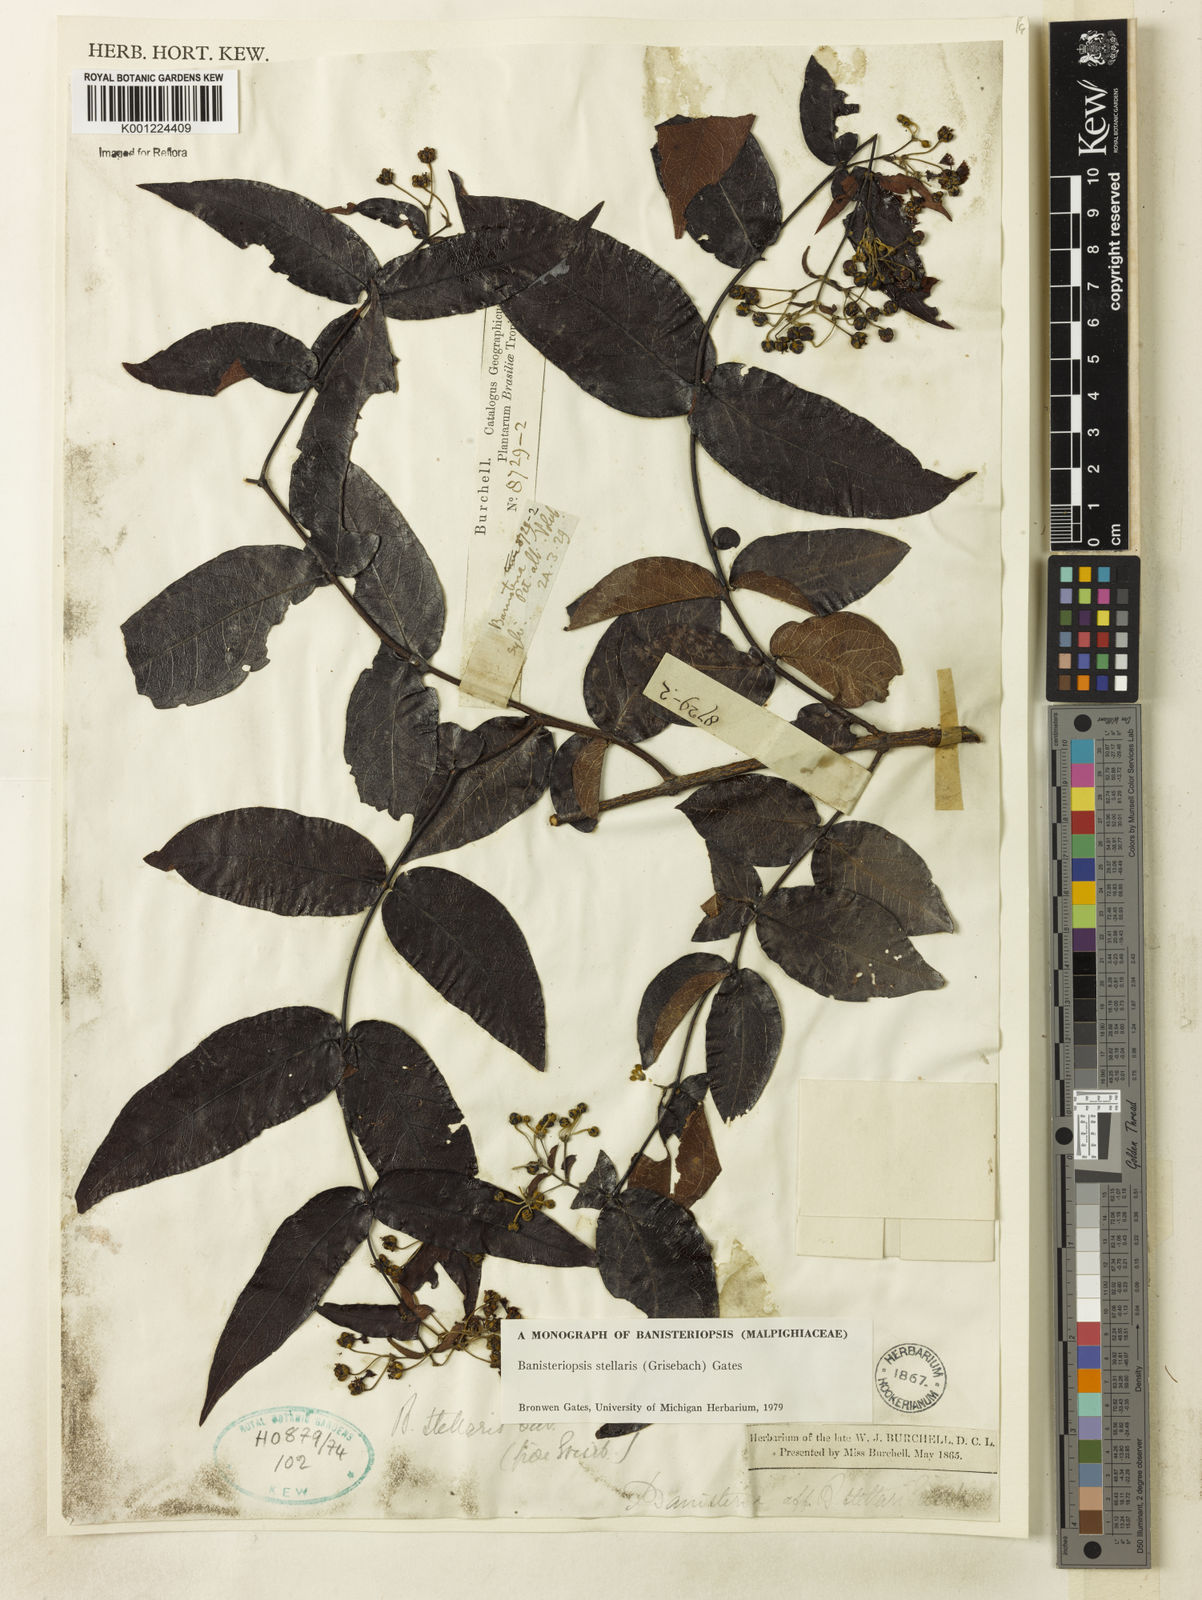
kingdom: Plantae
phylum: Tracheophyta
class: Magnoliopsida
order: Malpighiales
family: Malpighiaceae
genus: Banisteriopsis
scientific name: Banisteriopsis stellaris
